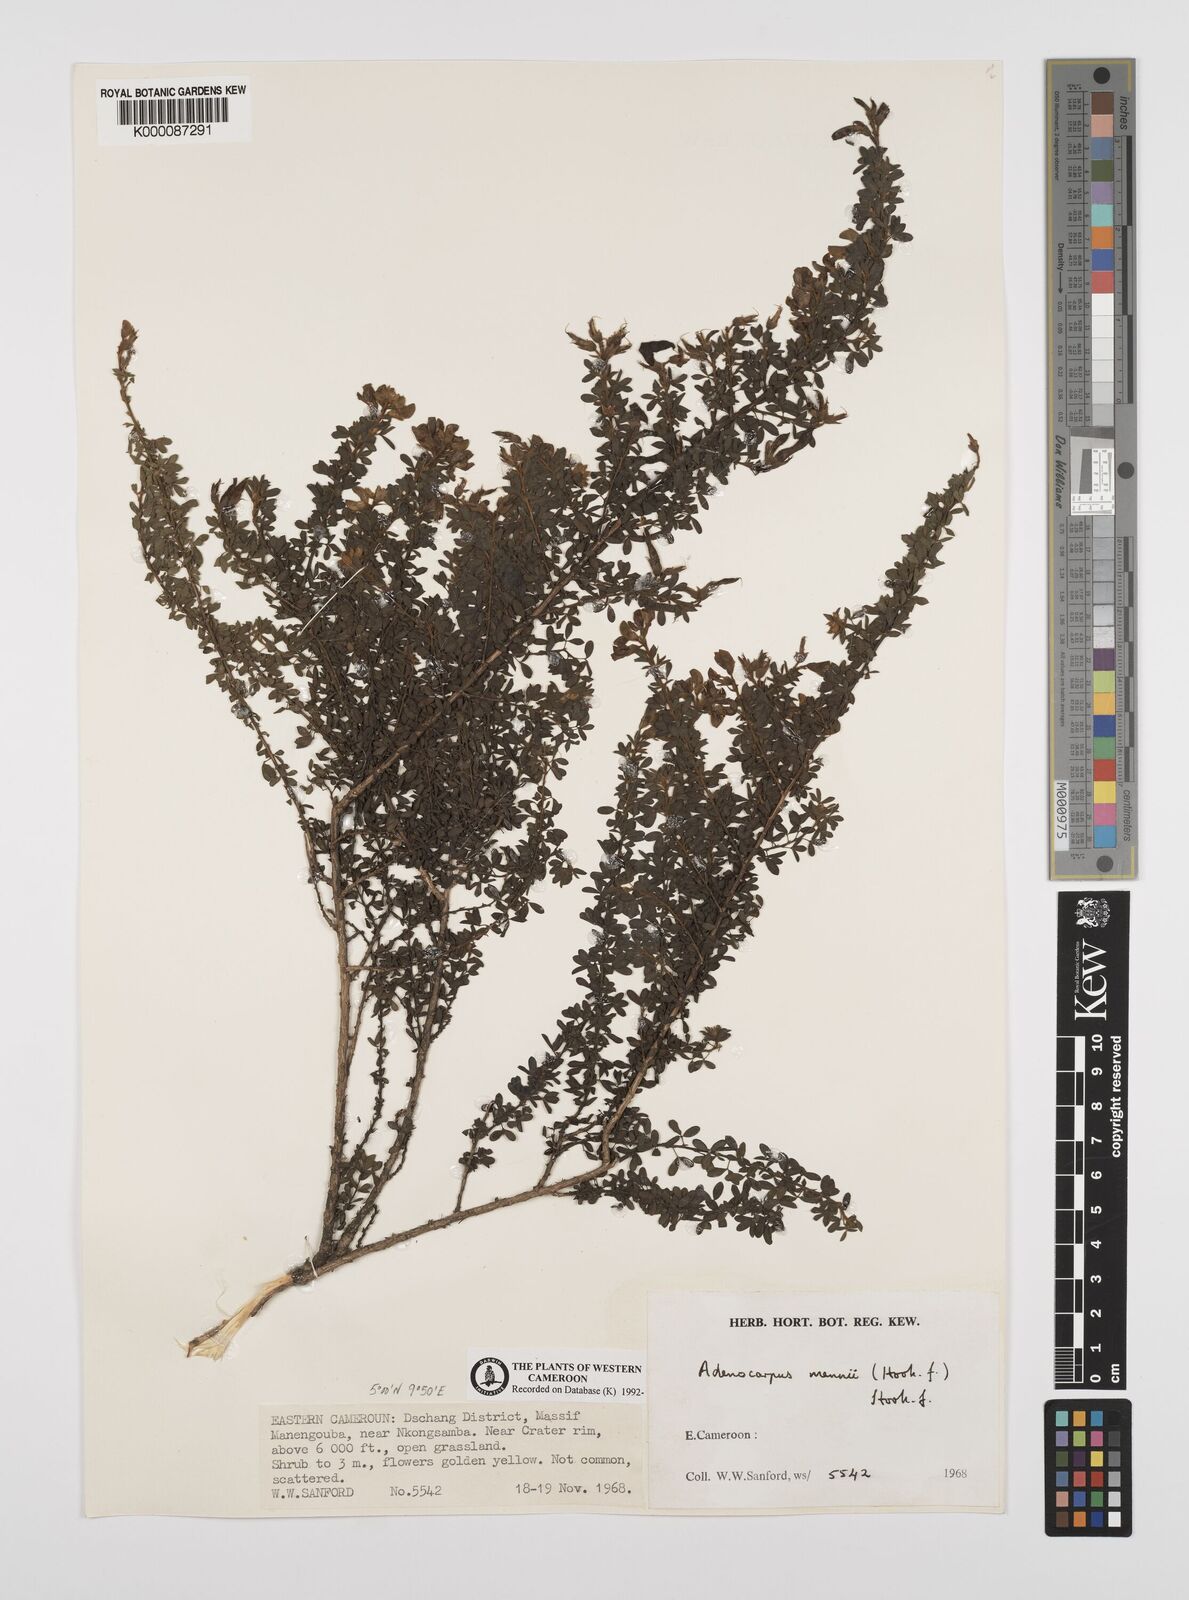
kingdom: Plantae
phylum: Tracheophyta
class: Magnoliopsida
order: Fabales
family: Fabaceae
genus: Adenocarpus
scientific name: Adenocarpus mannii
